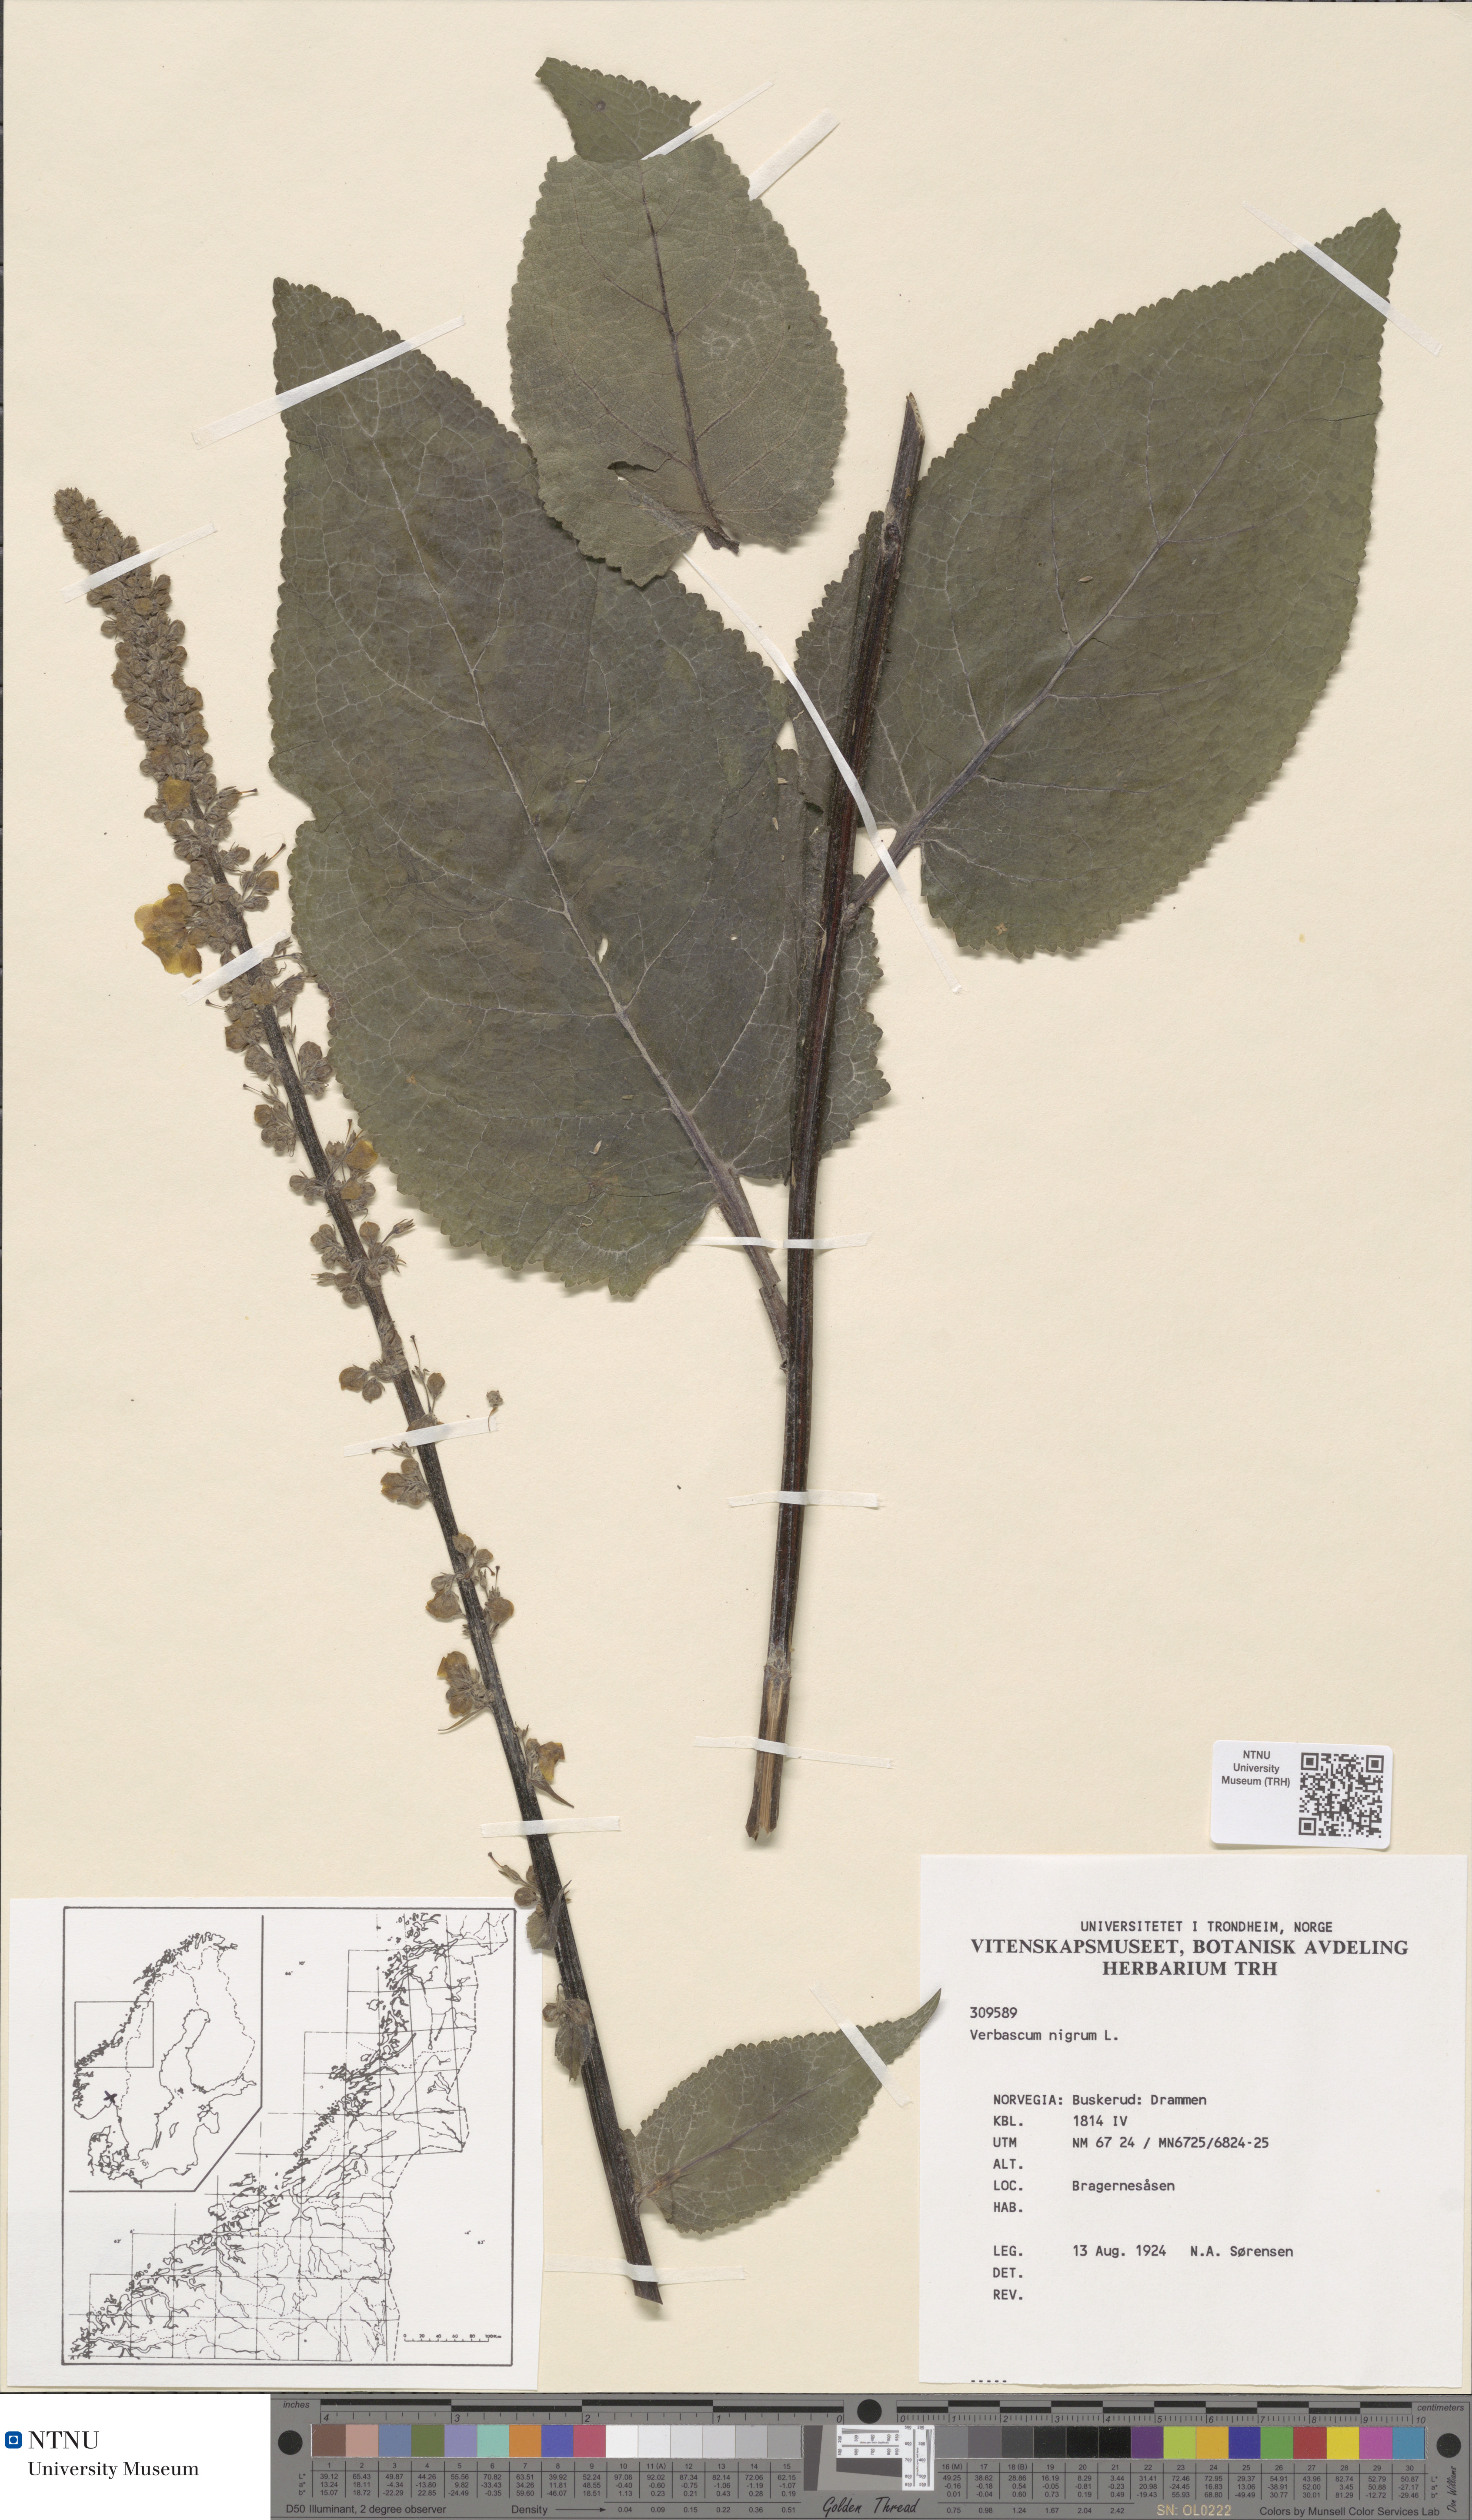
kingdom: Plantae
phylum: Tracheophyta
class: Magnoliopsida
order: Lamiales
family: Scrophulariaceae
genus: Verbascum
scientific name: Verbascum nigrum
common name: Dark mullein
